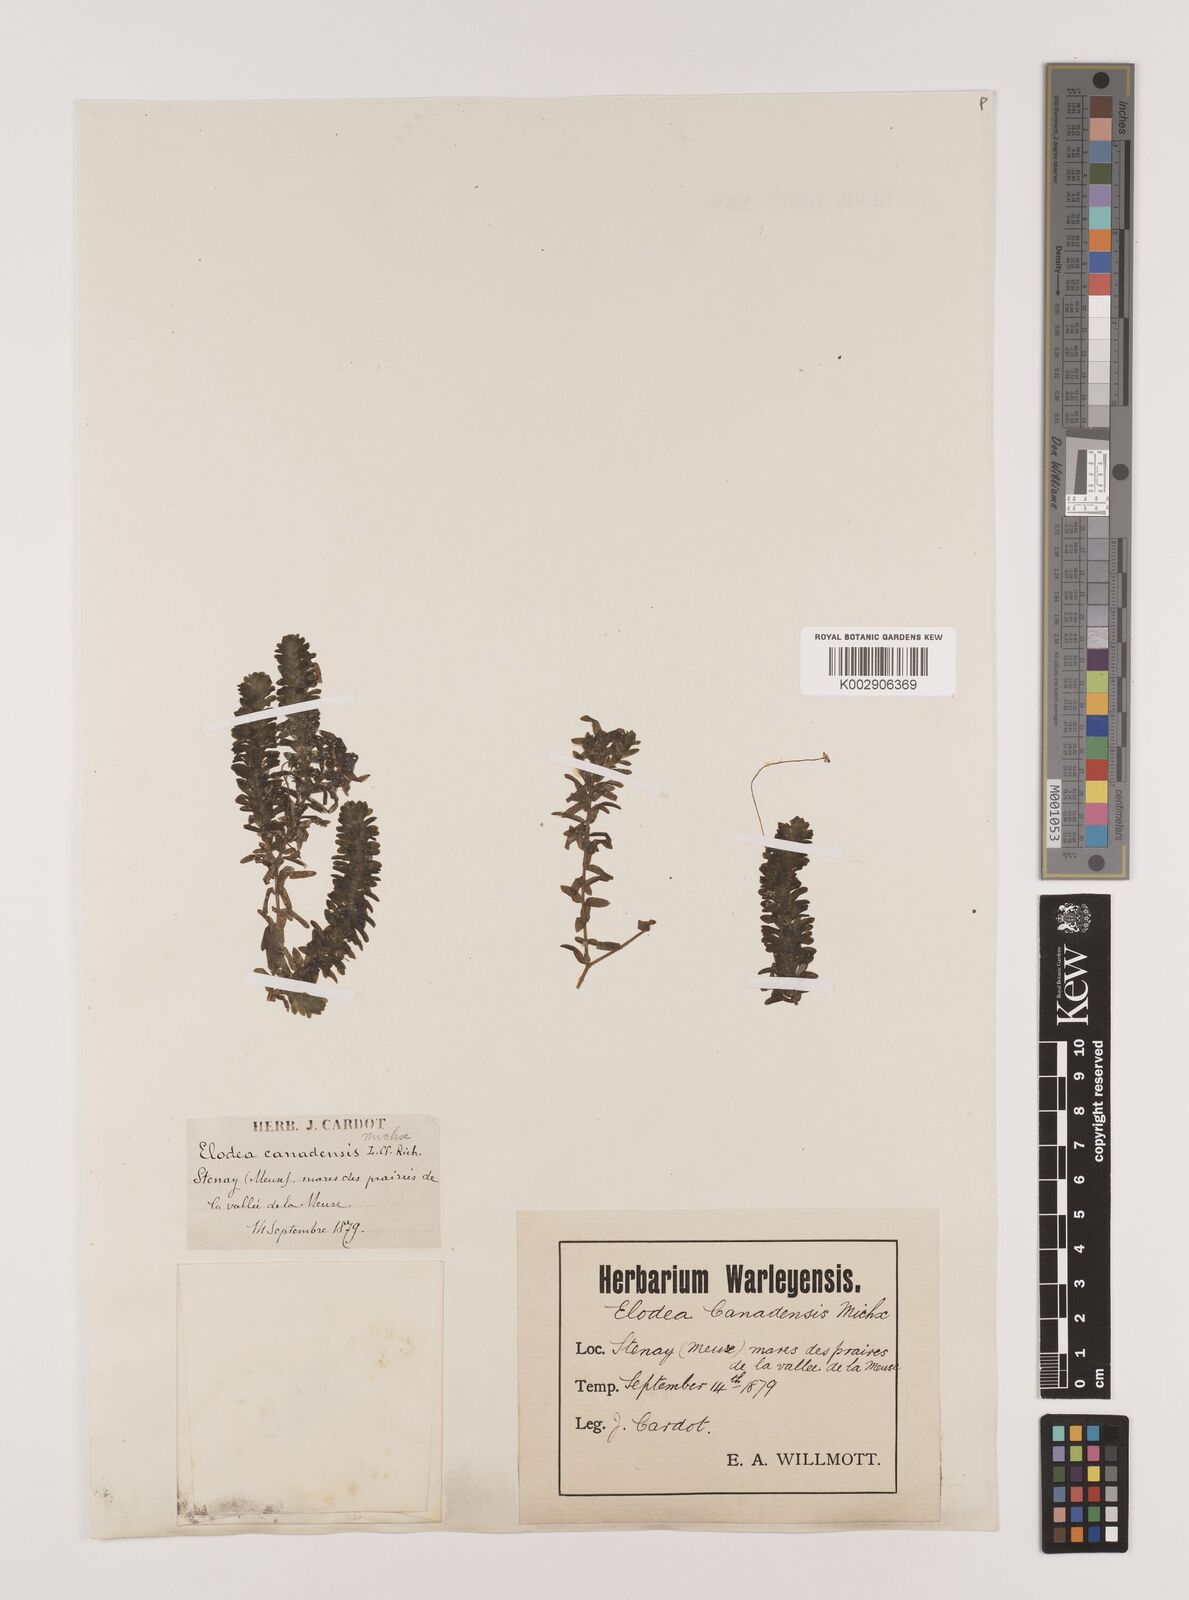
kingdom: Plantae
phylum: Tracheophyta
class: Liliopsida
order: Alismatales
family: Hydrocharitaceae
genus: Elodea
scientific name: Elodea canadensis
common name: Canadian waterweed
